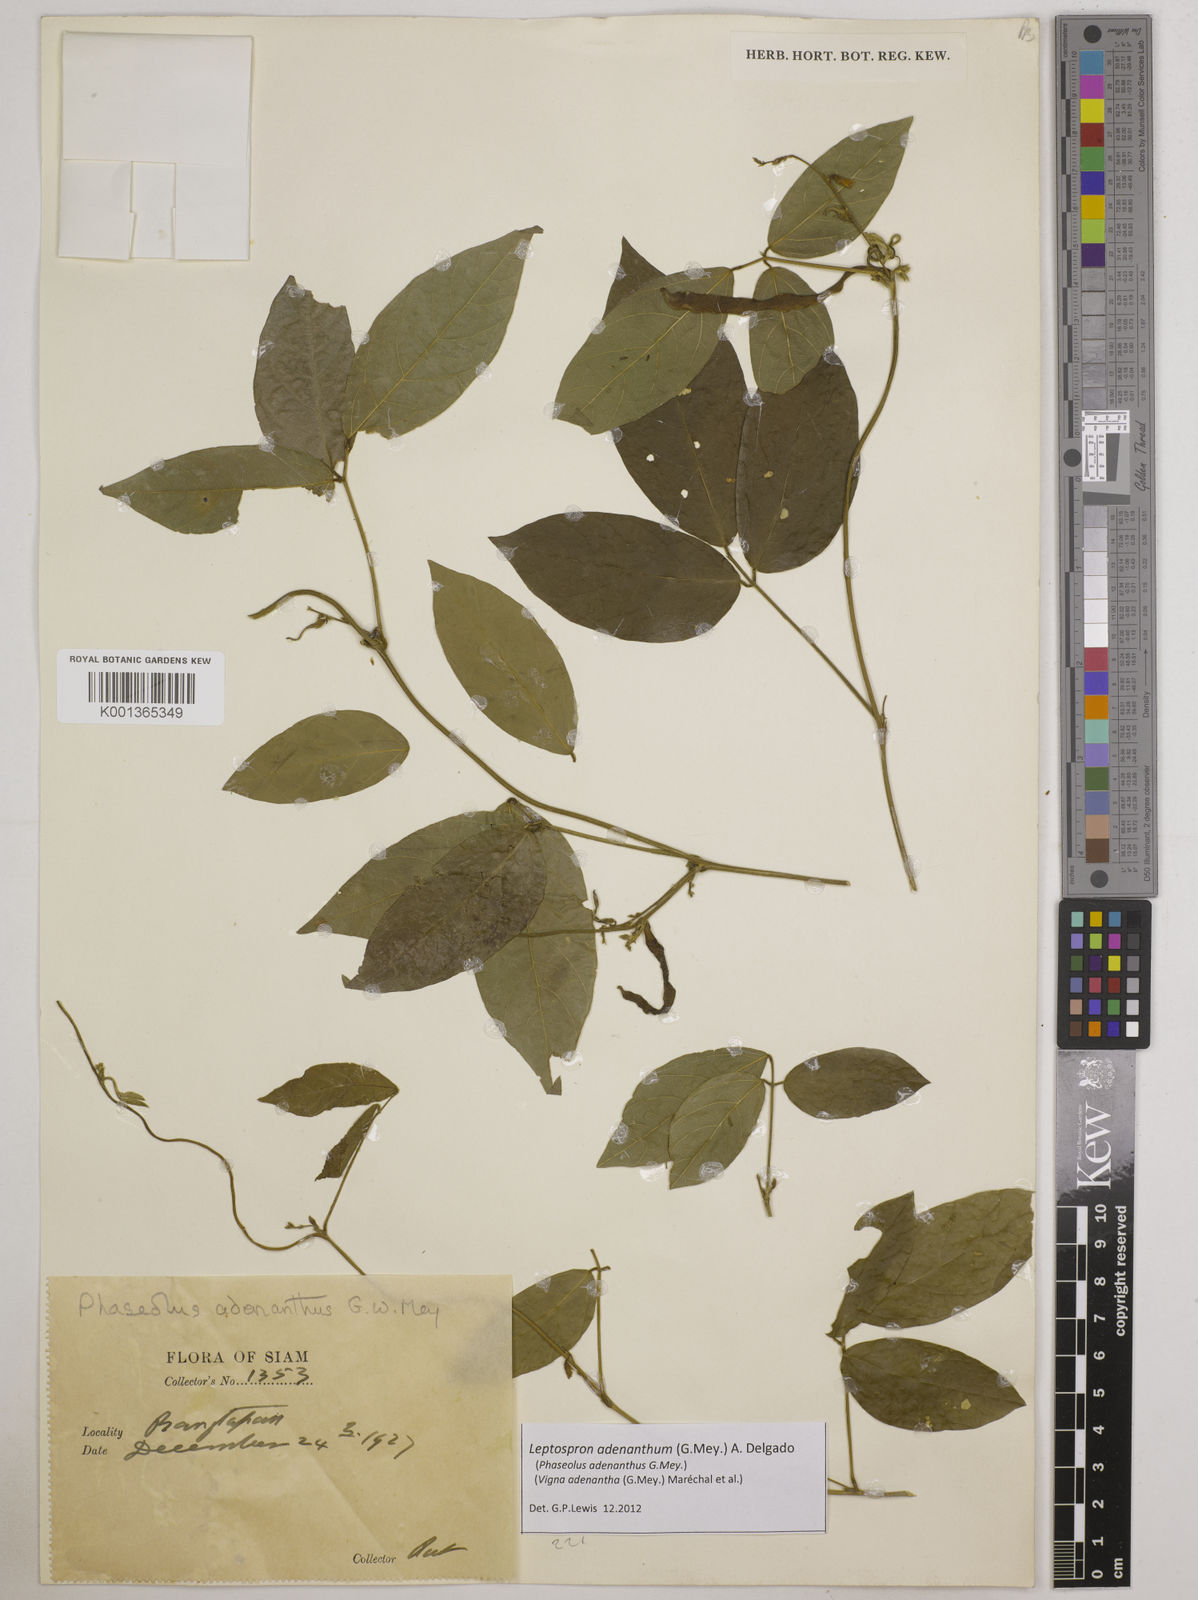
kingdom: Plantae
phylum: Tracheophyta
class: Magnoliopsida
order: Fabales
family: Fabaceae
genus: Leptospron
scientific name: Leptospron adenanthum
